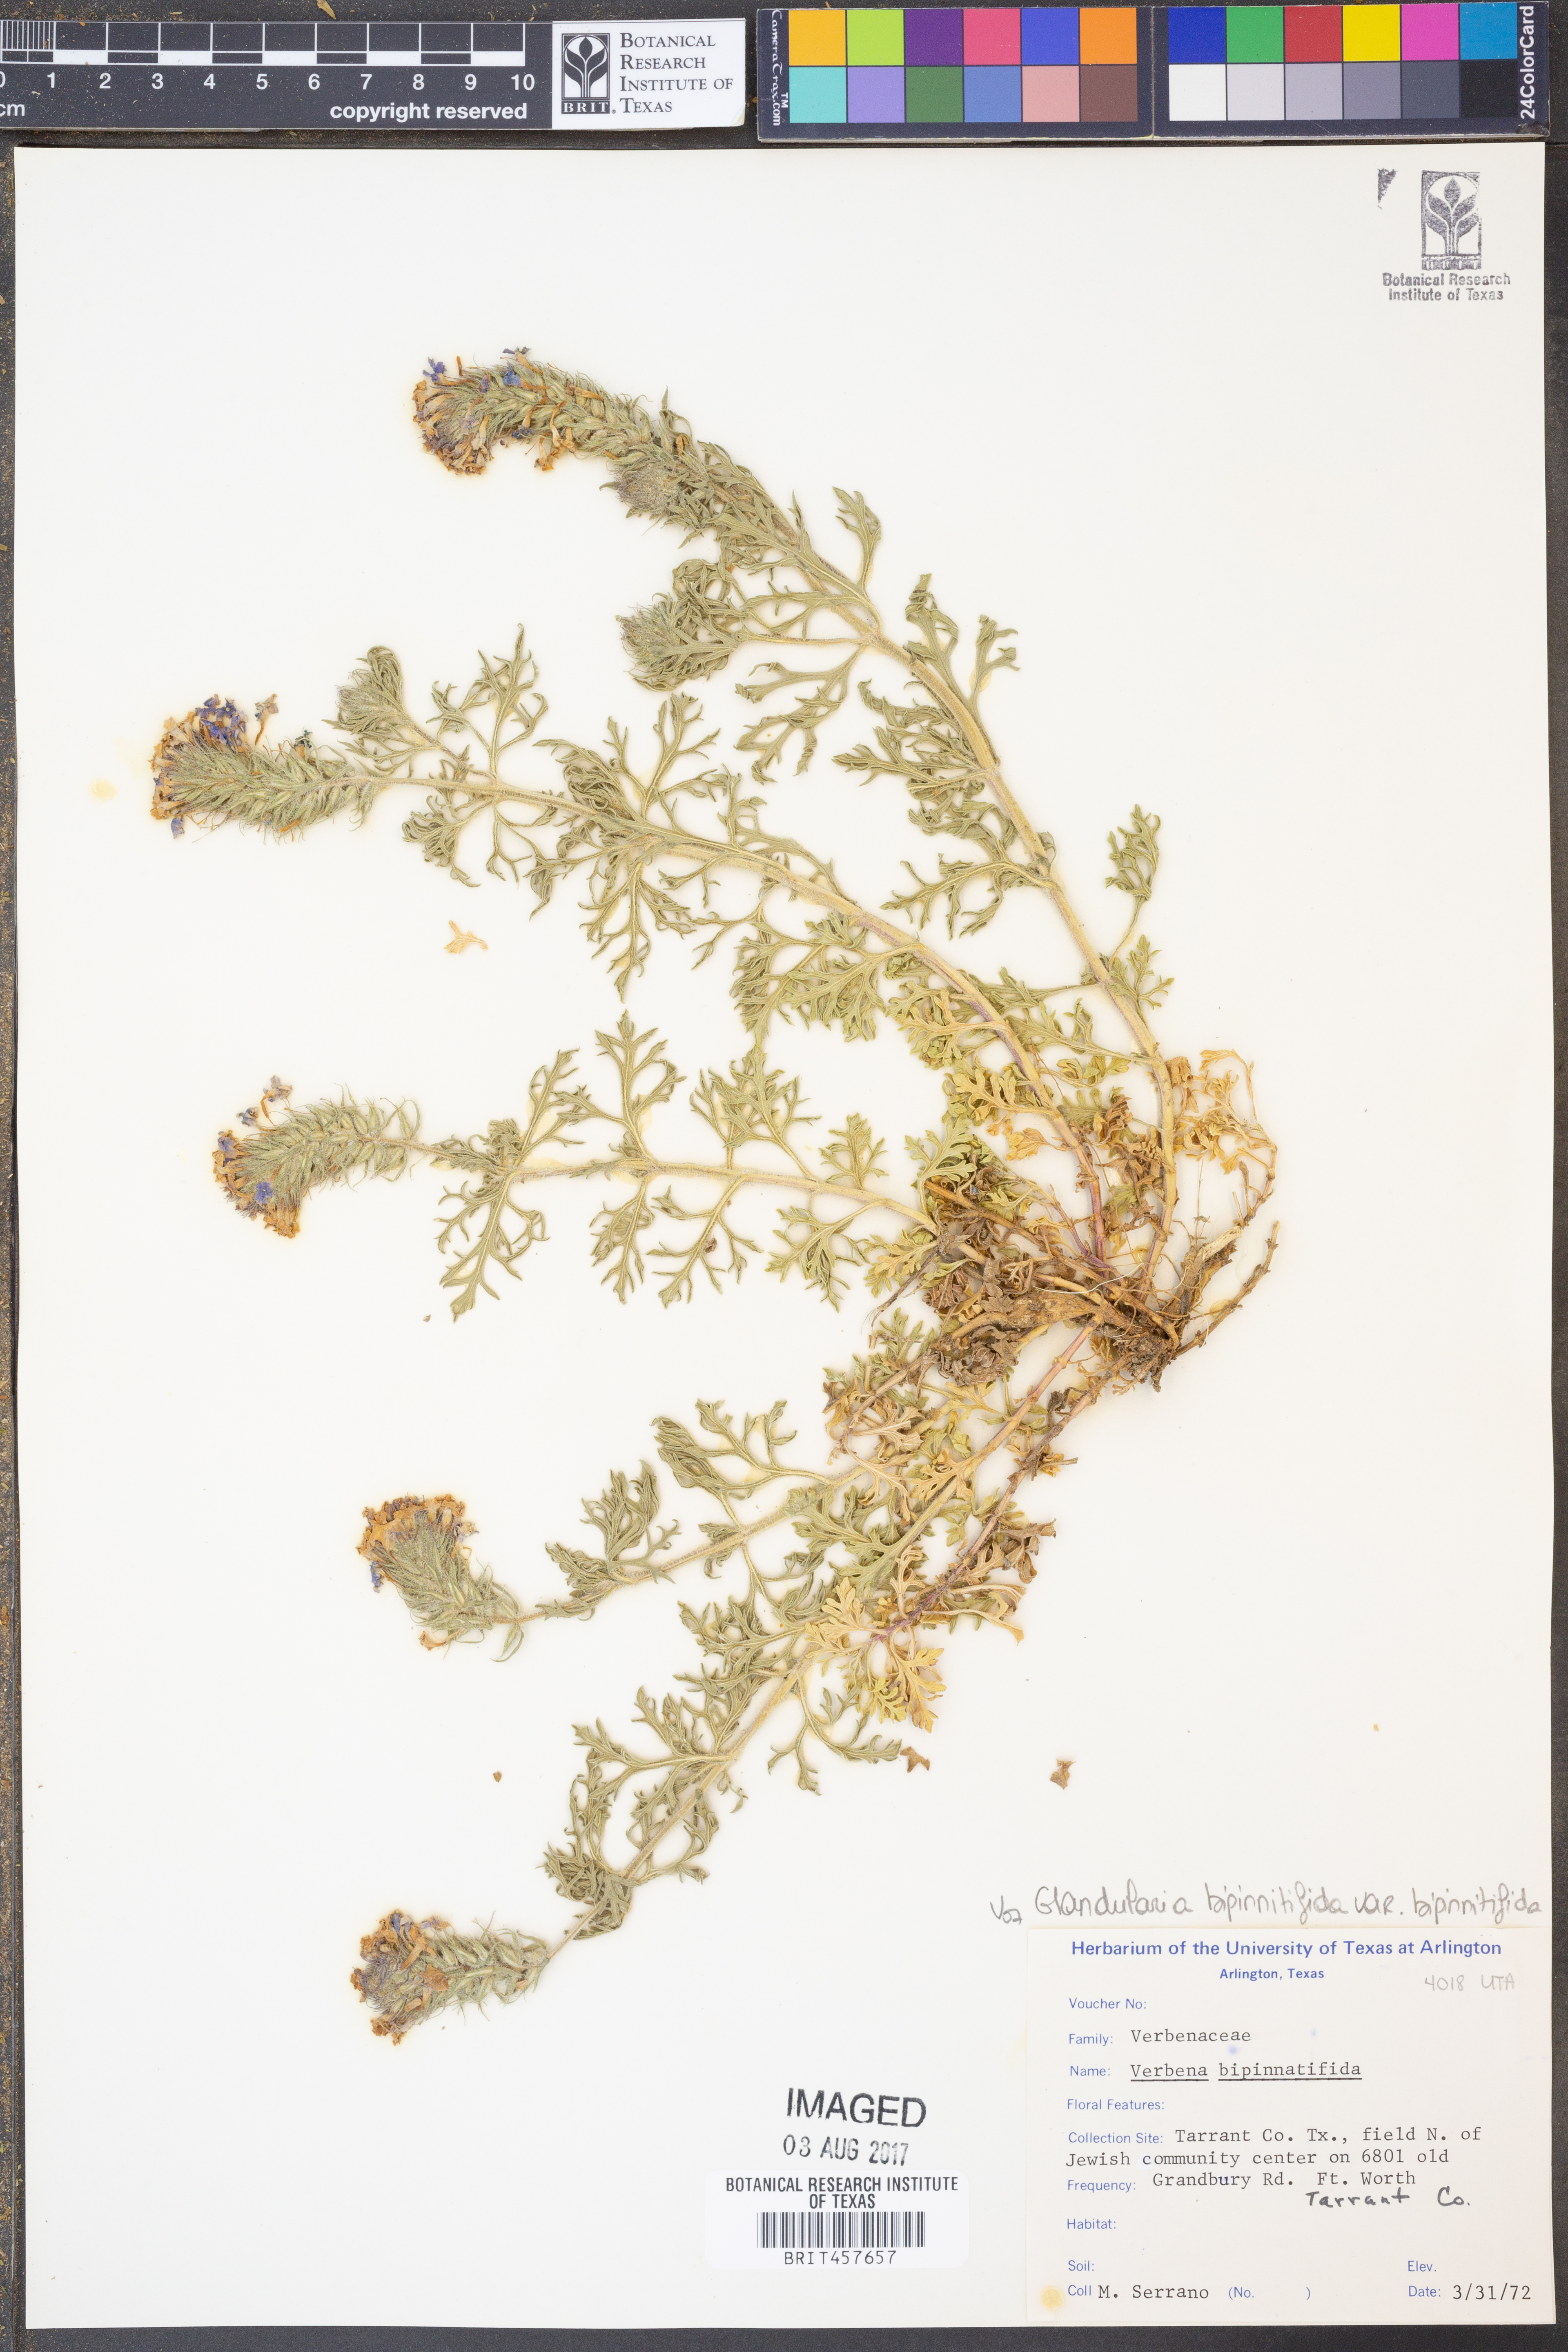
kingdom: Plantae
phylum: Tracheophyta
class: Magnoliopsida
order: Lamiales
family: Verbenaceae
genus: Verbena
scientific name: Verbena bipinnatifida
